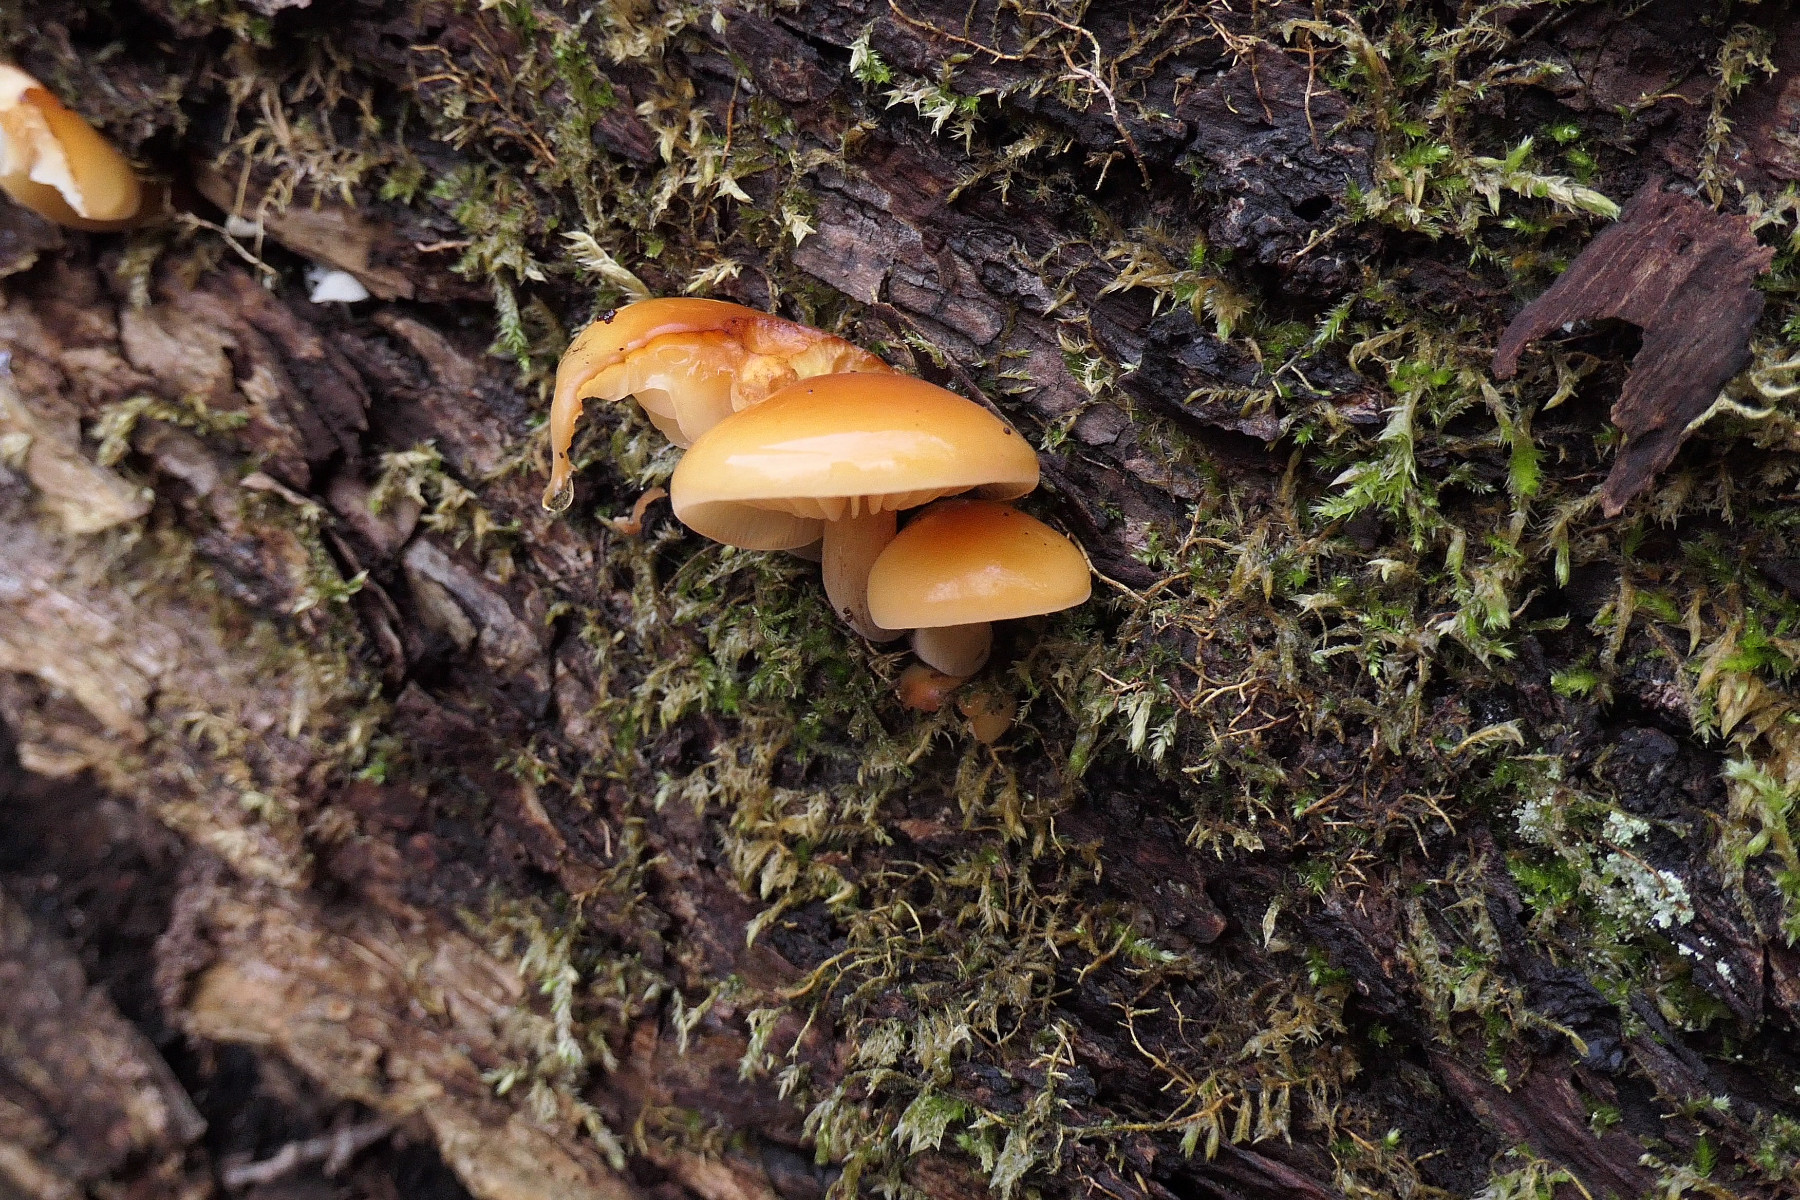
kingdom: Fungi
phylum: Basidiomycota
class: Agaricomycetes
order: Agaricales
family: Physalacriaceae
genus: Flammulina
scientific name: Flammulina elastica
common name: pile-fløjlsfod
